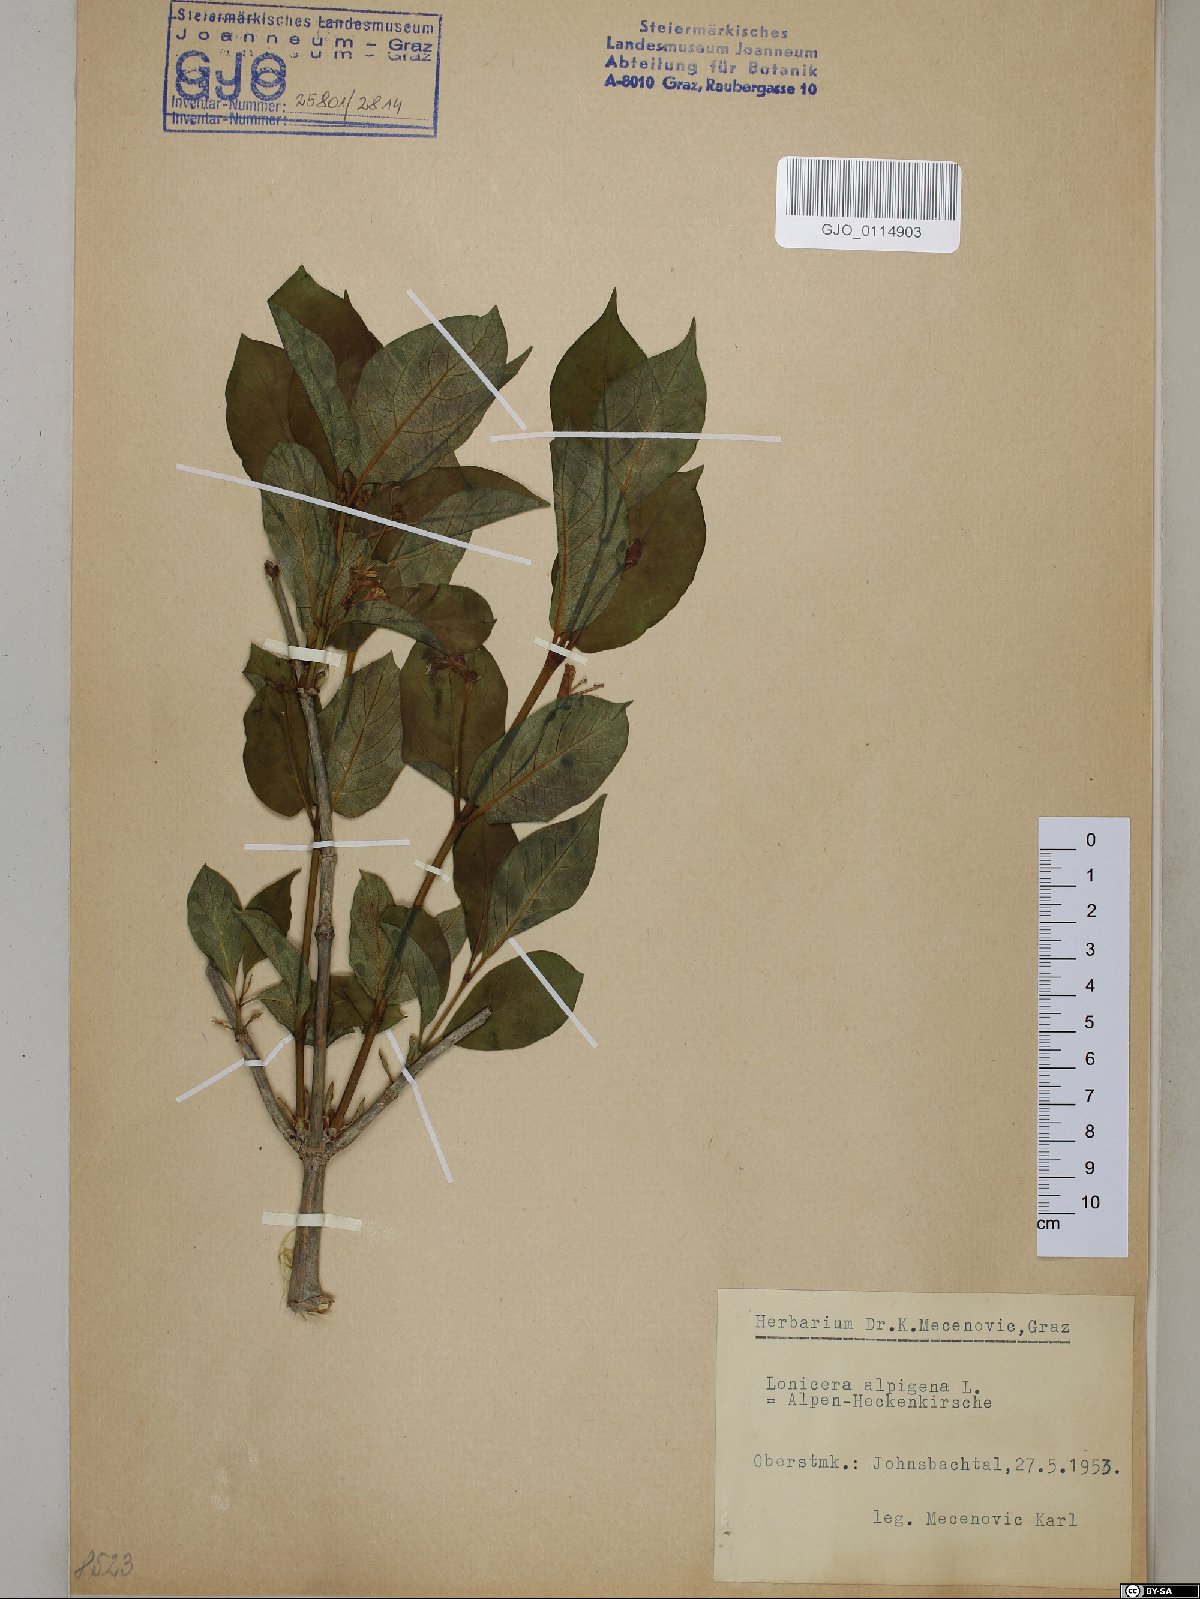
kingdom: Plantae
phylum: Tracheophyta
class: Magnoliopsida
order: Dipsacales
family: Caprifoliaceae
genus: Lonicera
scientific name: Lonicera alpigena
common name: Alpine honeysuckle
